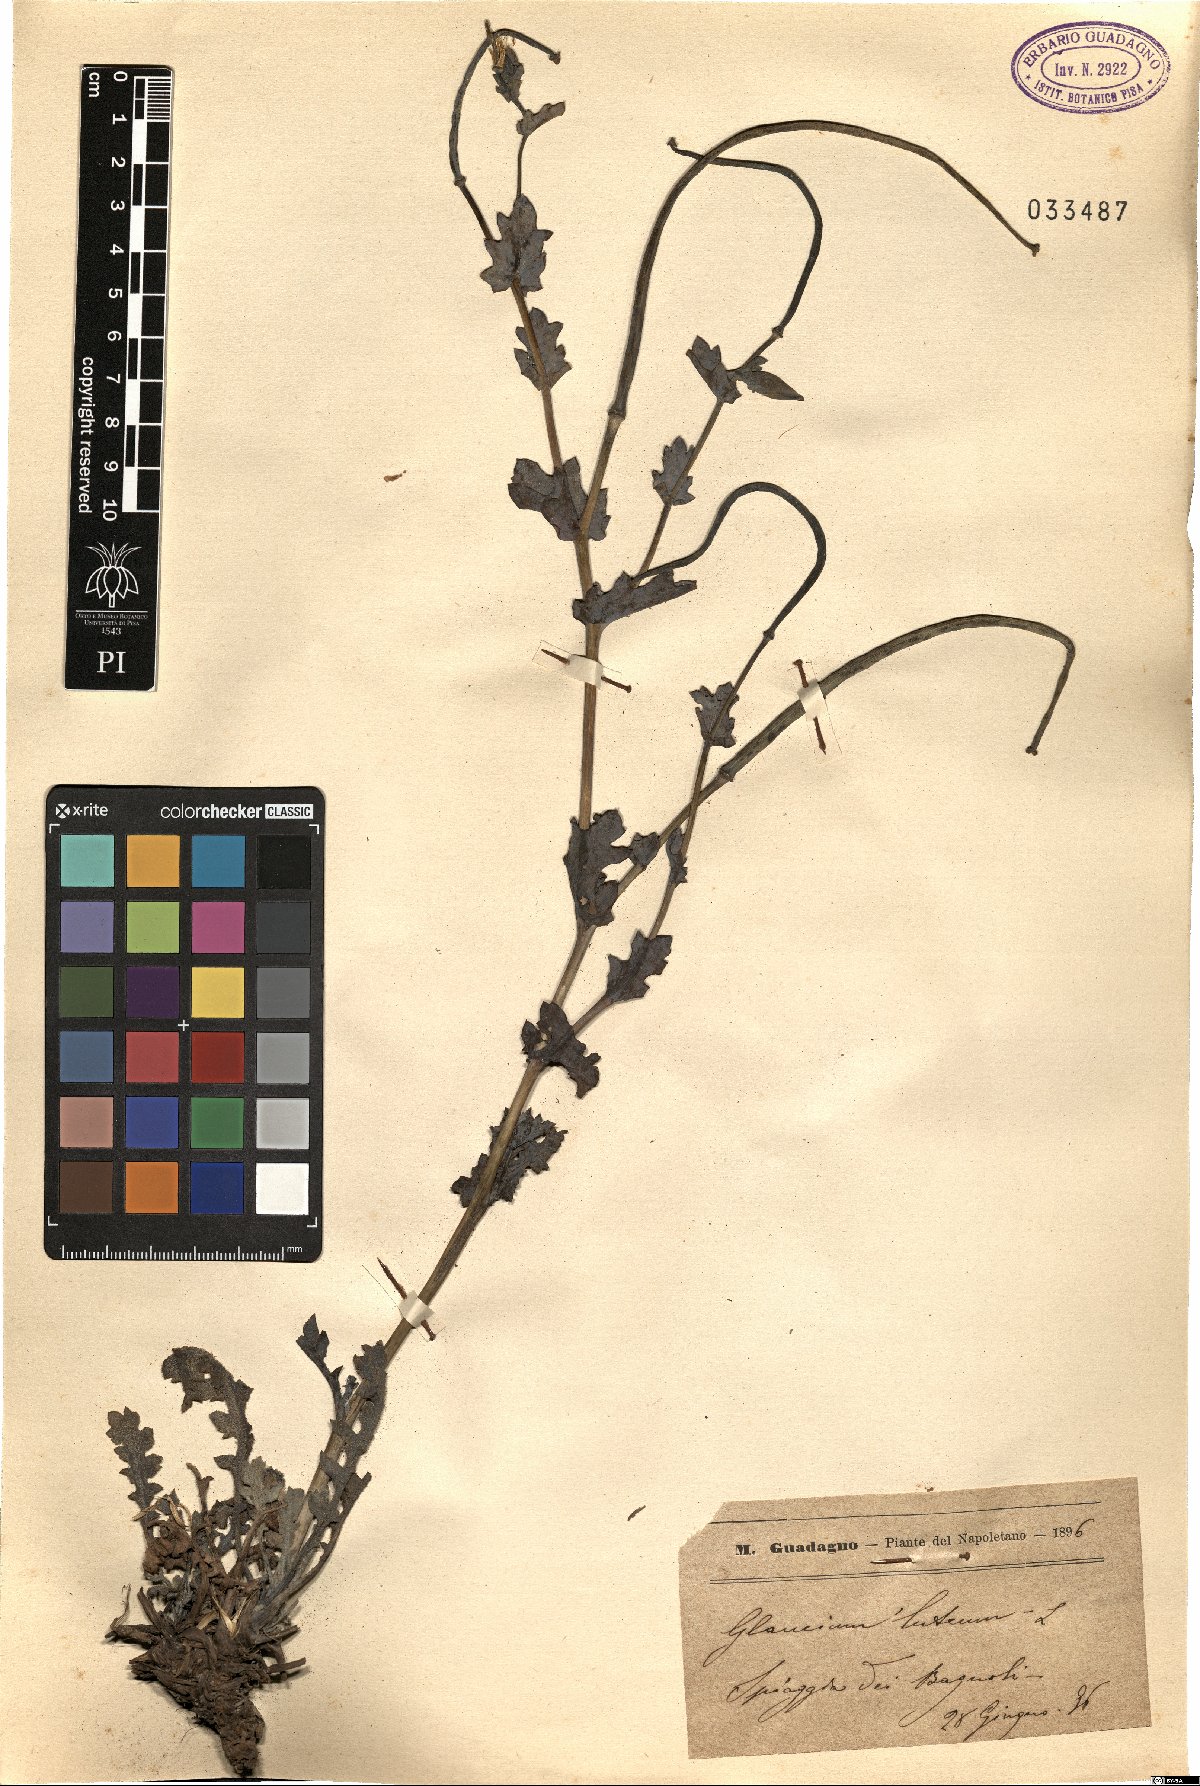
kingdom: Plantae
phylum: Tracheophyta
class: Magnoliopsida
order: Ranunculales
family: Papaveraceae
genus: Glaucium
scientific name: Glaucium flavum
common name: Yellow horned-poppy
